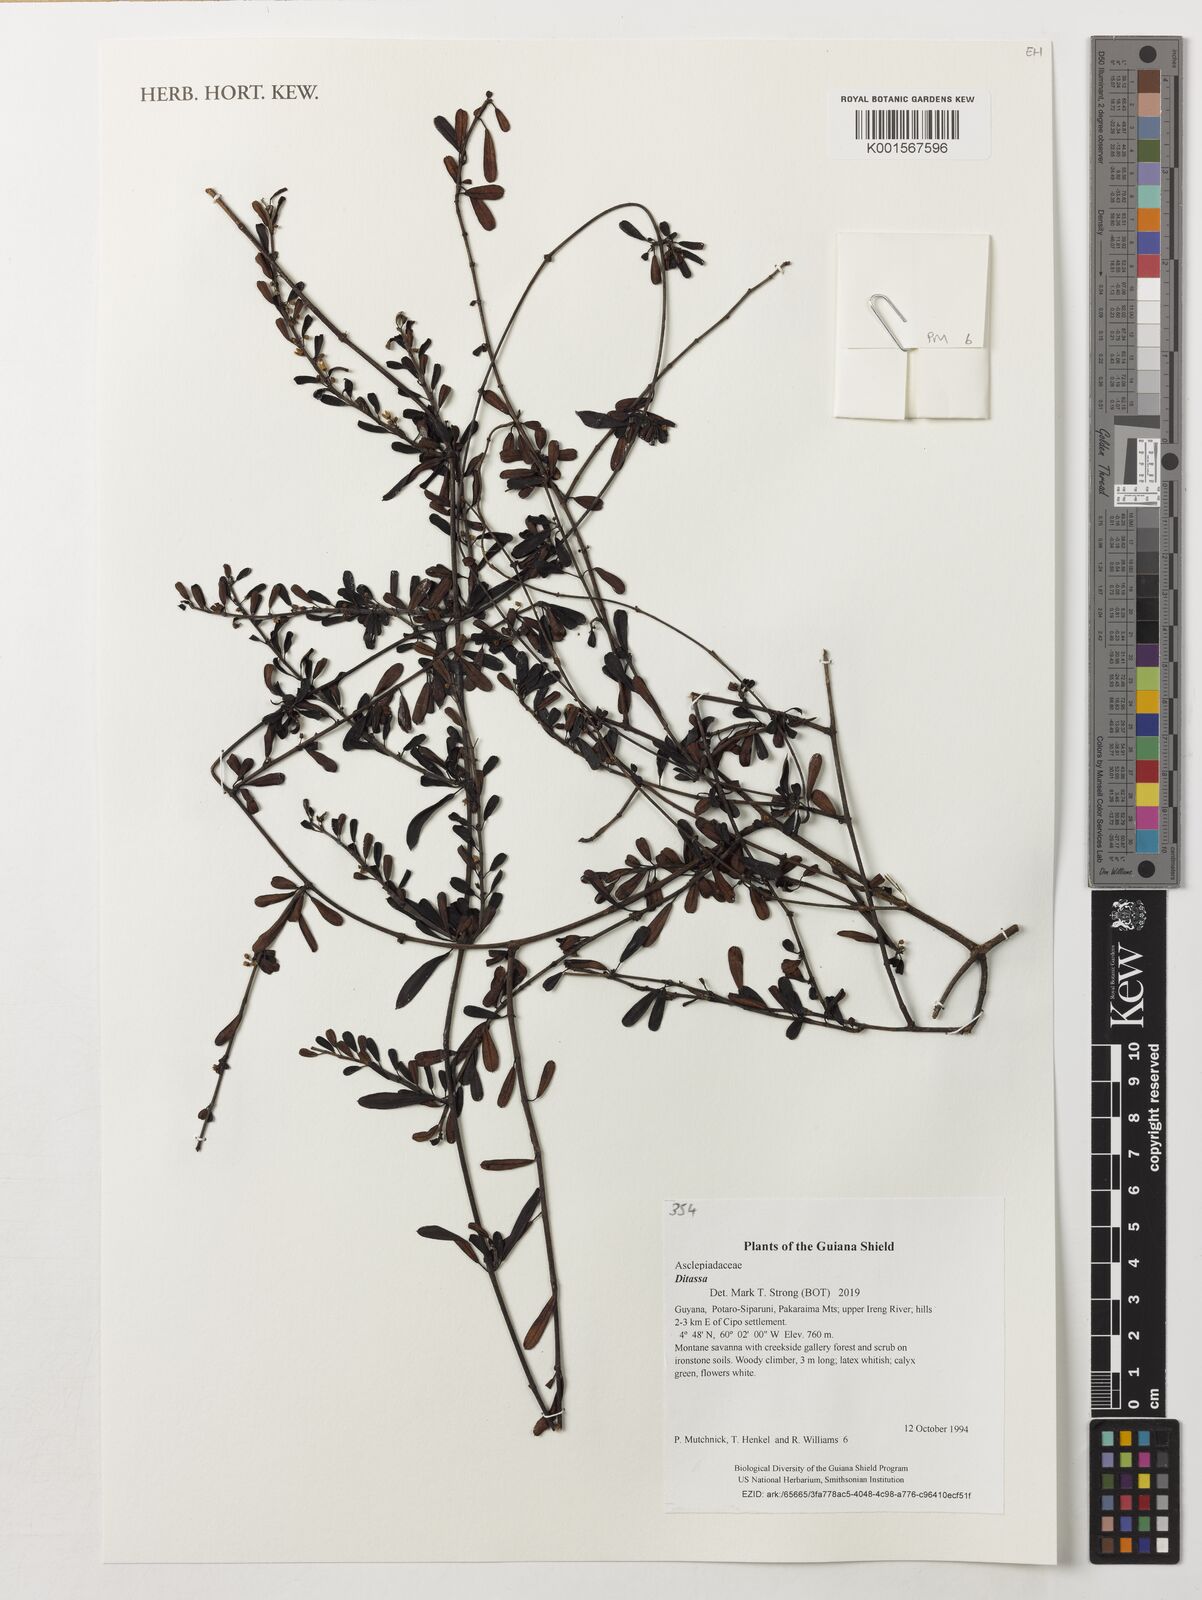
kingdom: Plantae
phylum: Tracheophyta
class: Magnoliopsida
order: Gentianales
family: Apocynaceae
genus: Ditassa
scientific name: Ditassa
